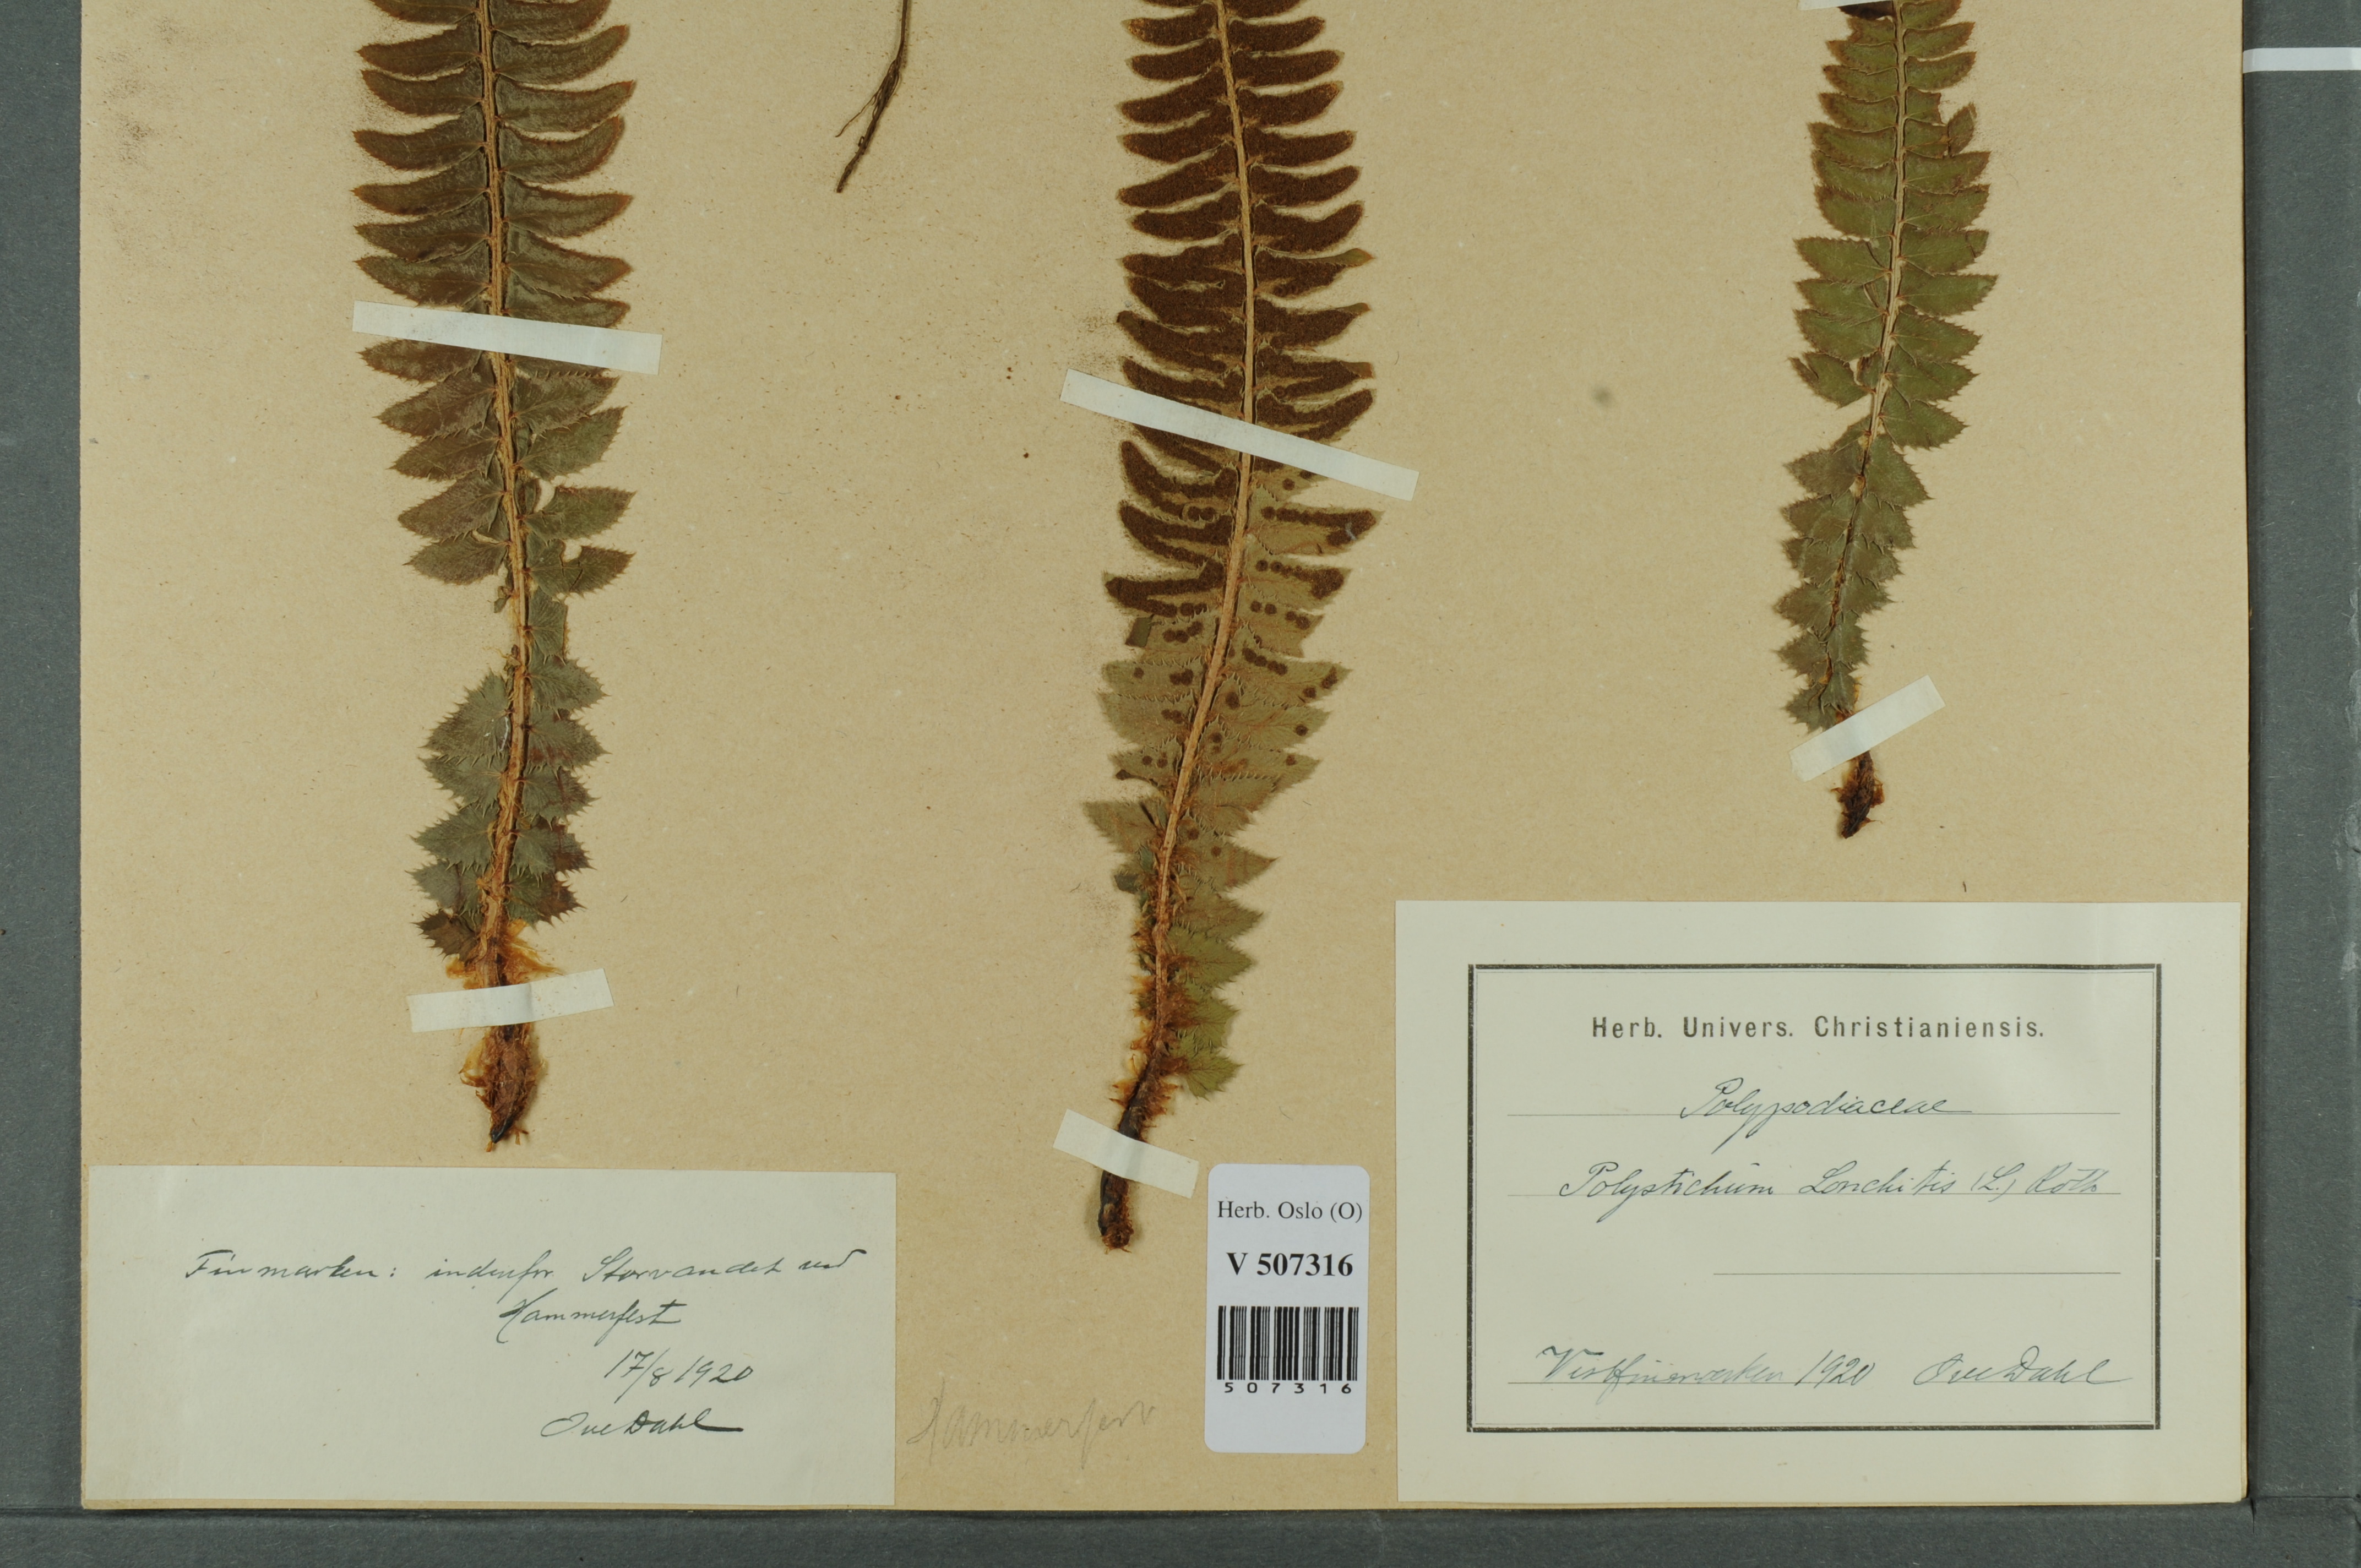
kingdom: Plantae
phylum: Tracheophyta
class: Polypodiopsida
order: Polypodiales
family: Dryopteridaceae
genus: Polystichum
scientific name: Polystichum lonchitis
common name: Holly fern
